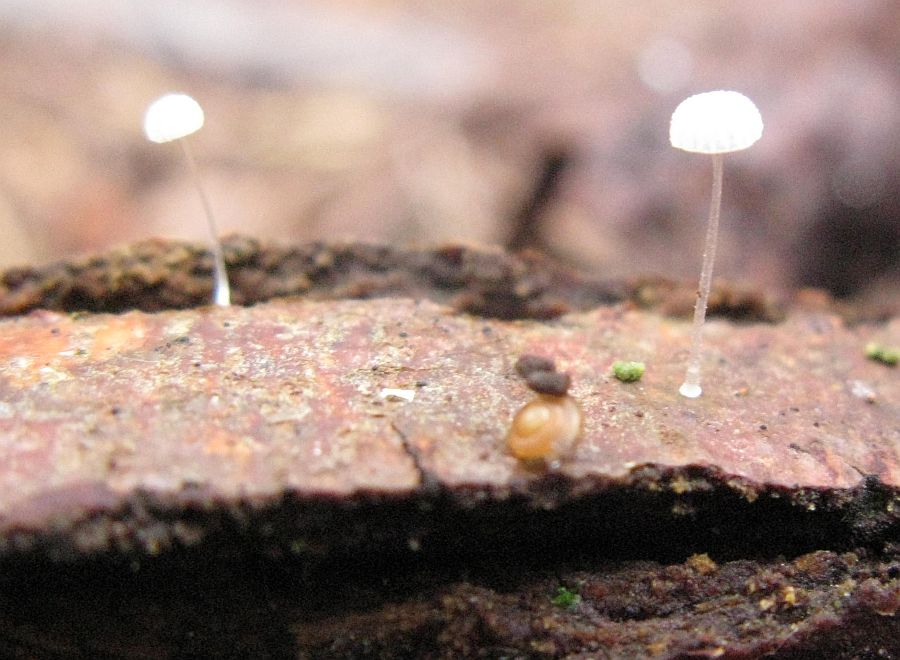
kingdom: Fungi
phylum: Basidiomycota
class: Agaricomycetes
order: Agaricales
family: Mycenaceae
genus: Mycena
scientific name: Mycena tenerrima
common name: pudret huesvamp
